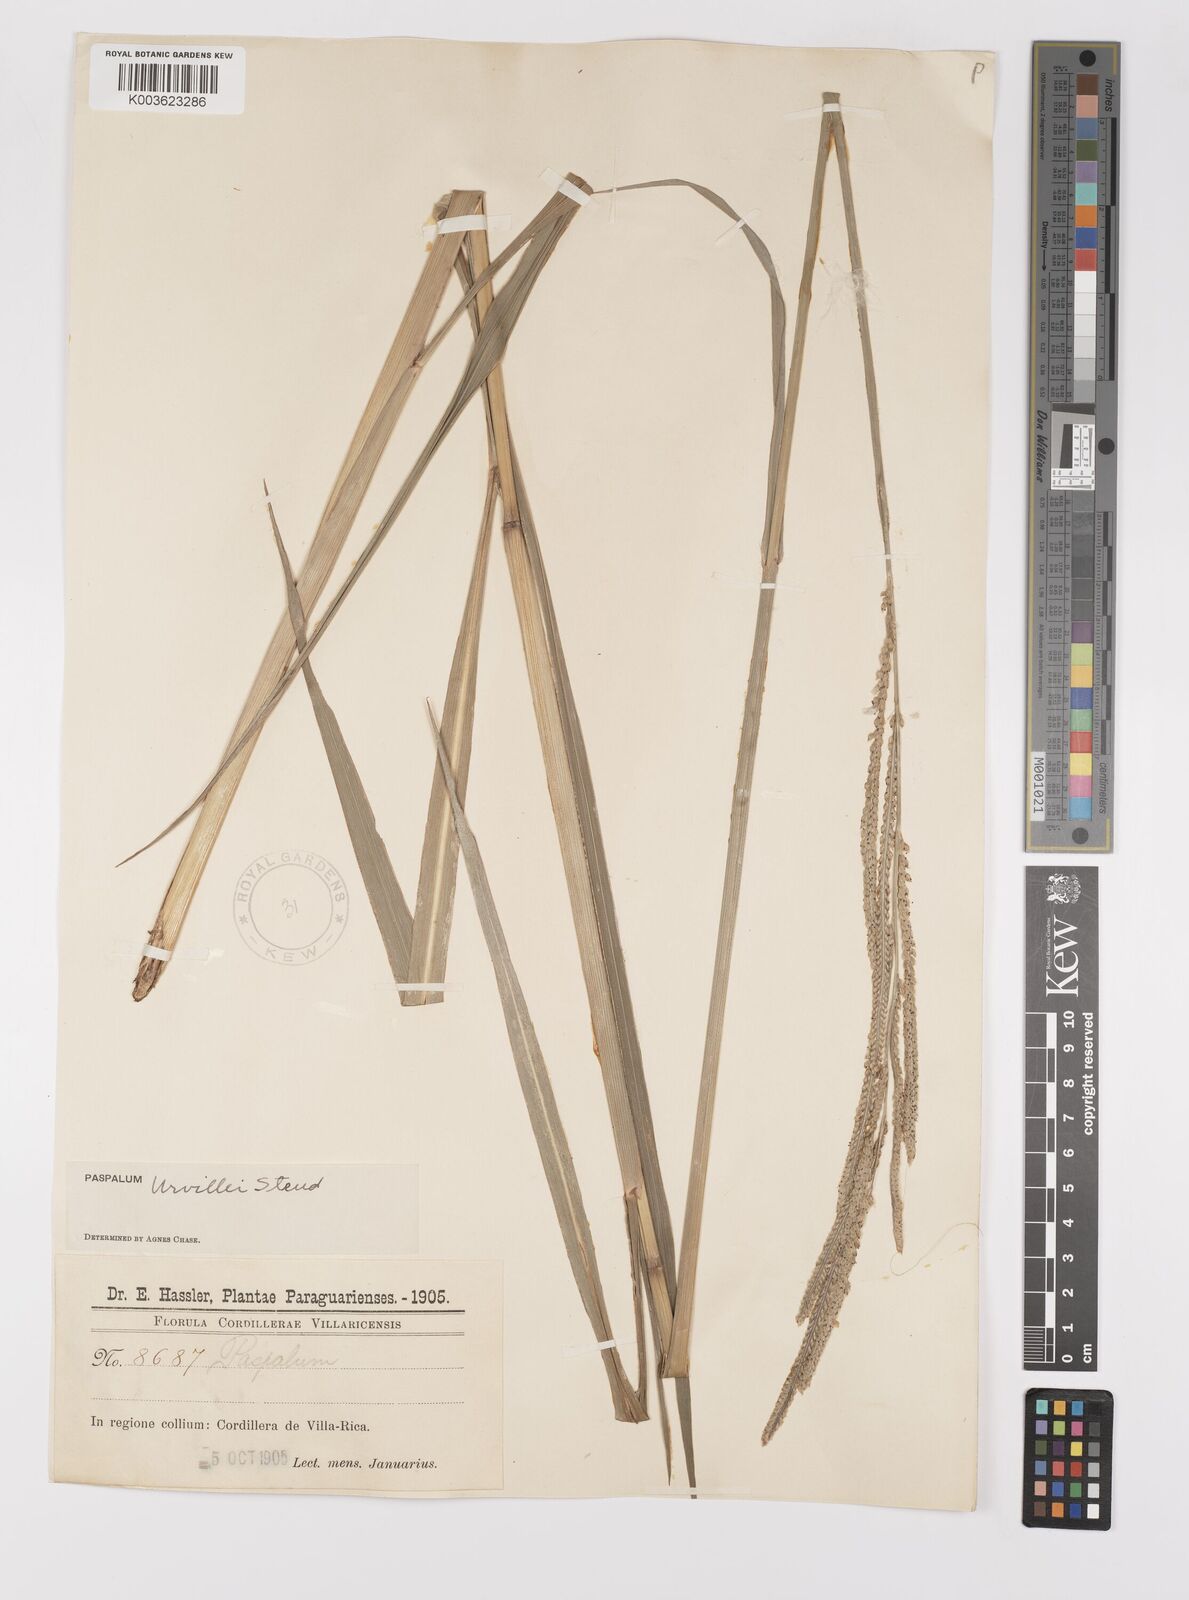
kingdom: Plantae
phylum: Tracheophyta
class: Liliopsida
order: Poales
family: Poaceae
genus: Paspalum
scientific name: Paspalum urvillei
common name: Vasey's grass
